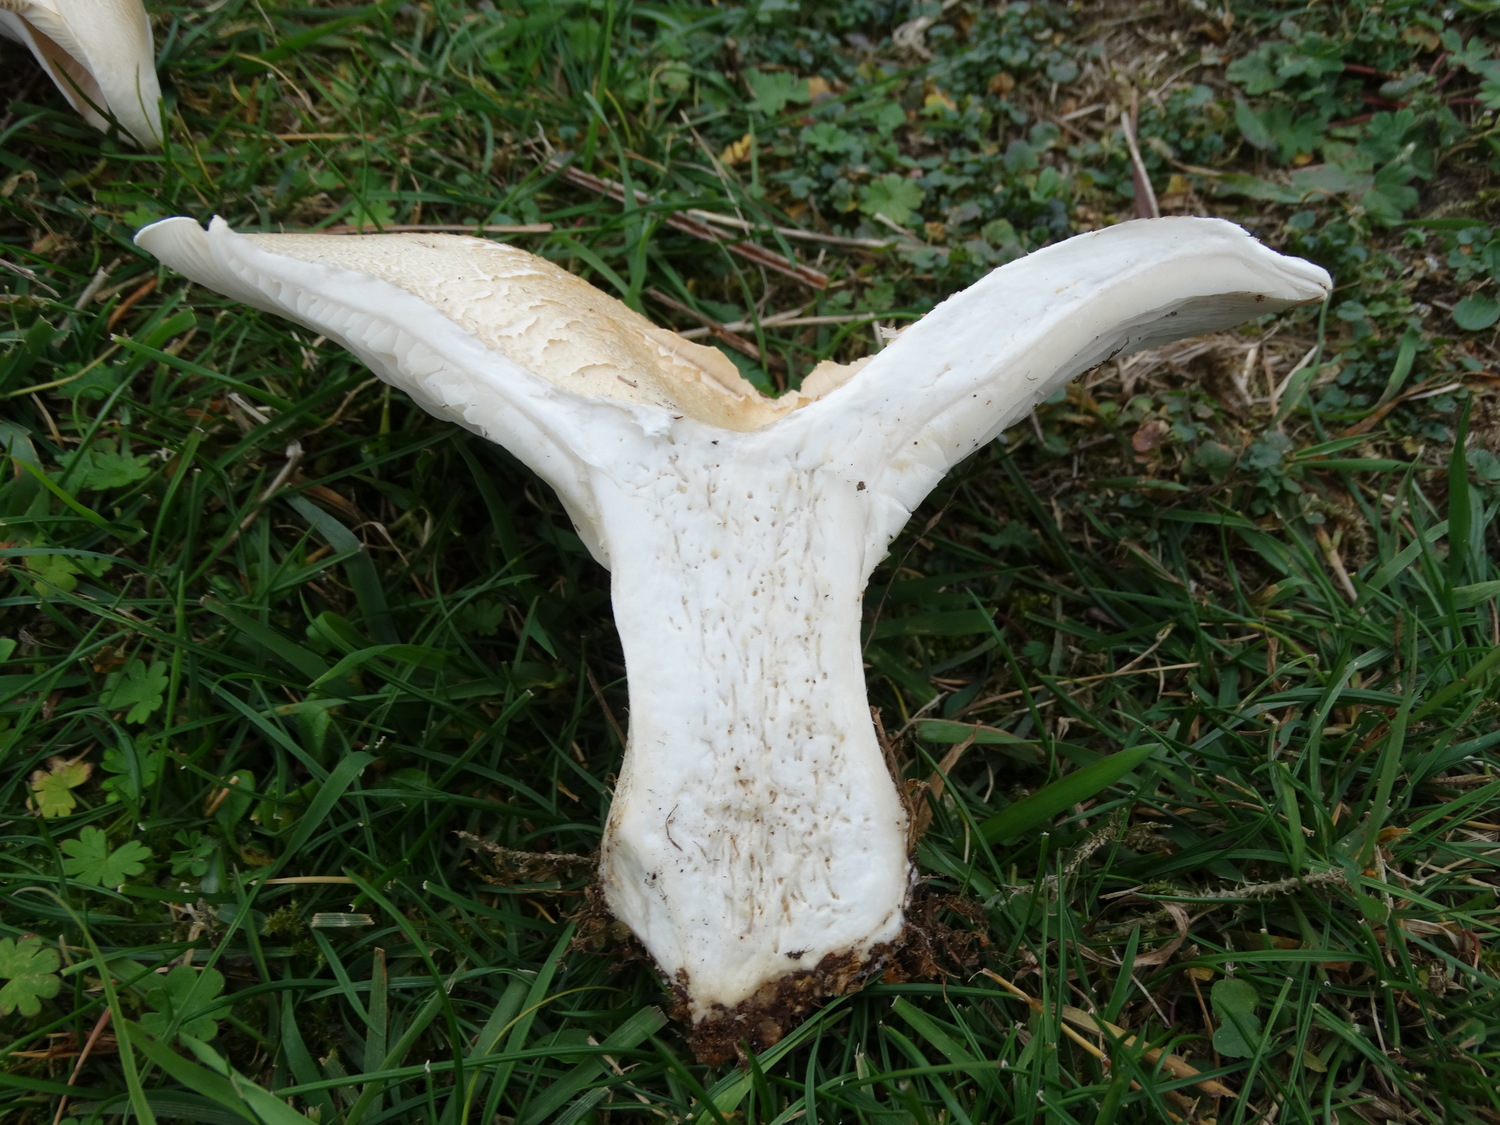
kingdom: Fungi
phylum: Basidiomycota
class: Agaricomycetes
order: Agaricales
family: Tricholomataceae
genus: Aspropaxillus
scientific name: Aspropaxillus giganteus
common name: kæmpe-tragtridderhat
